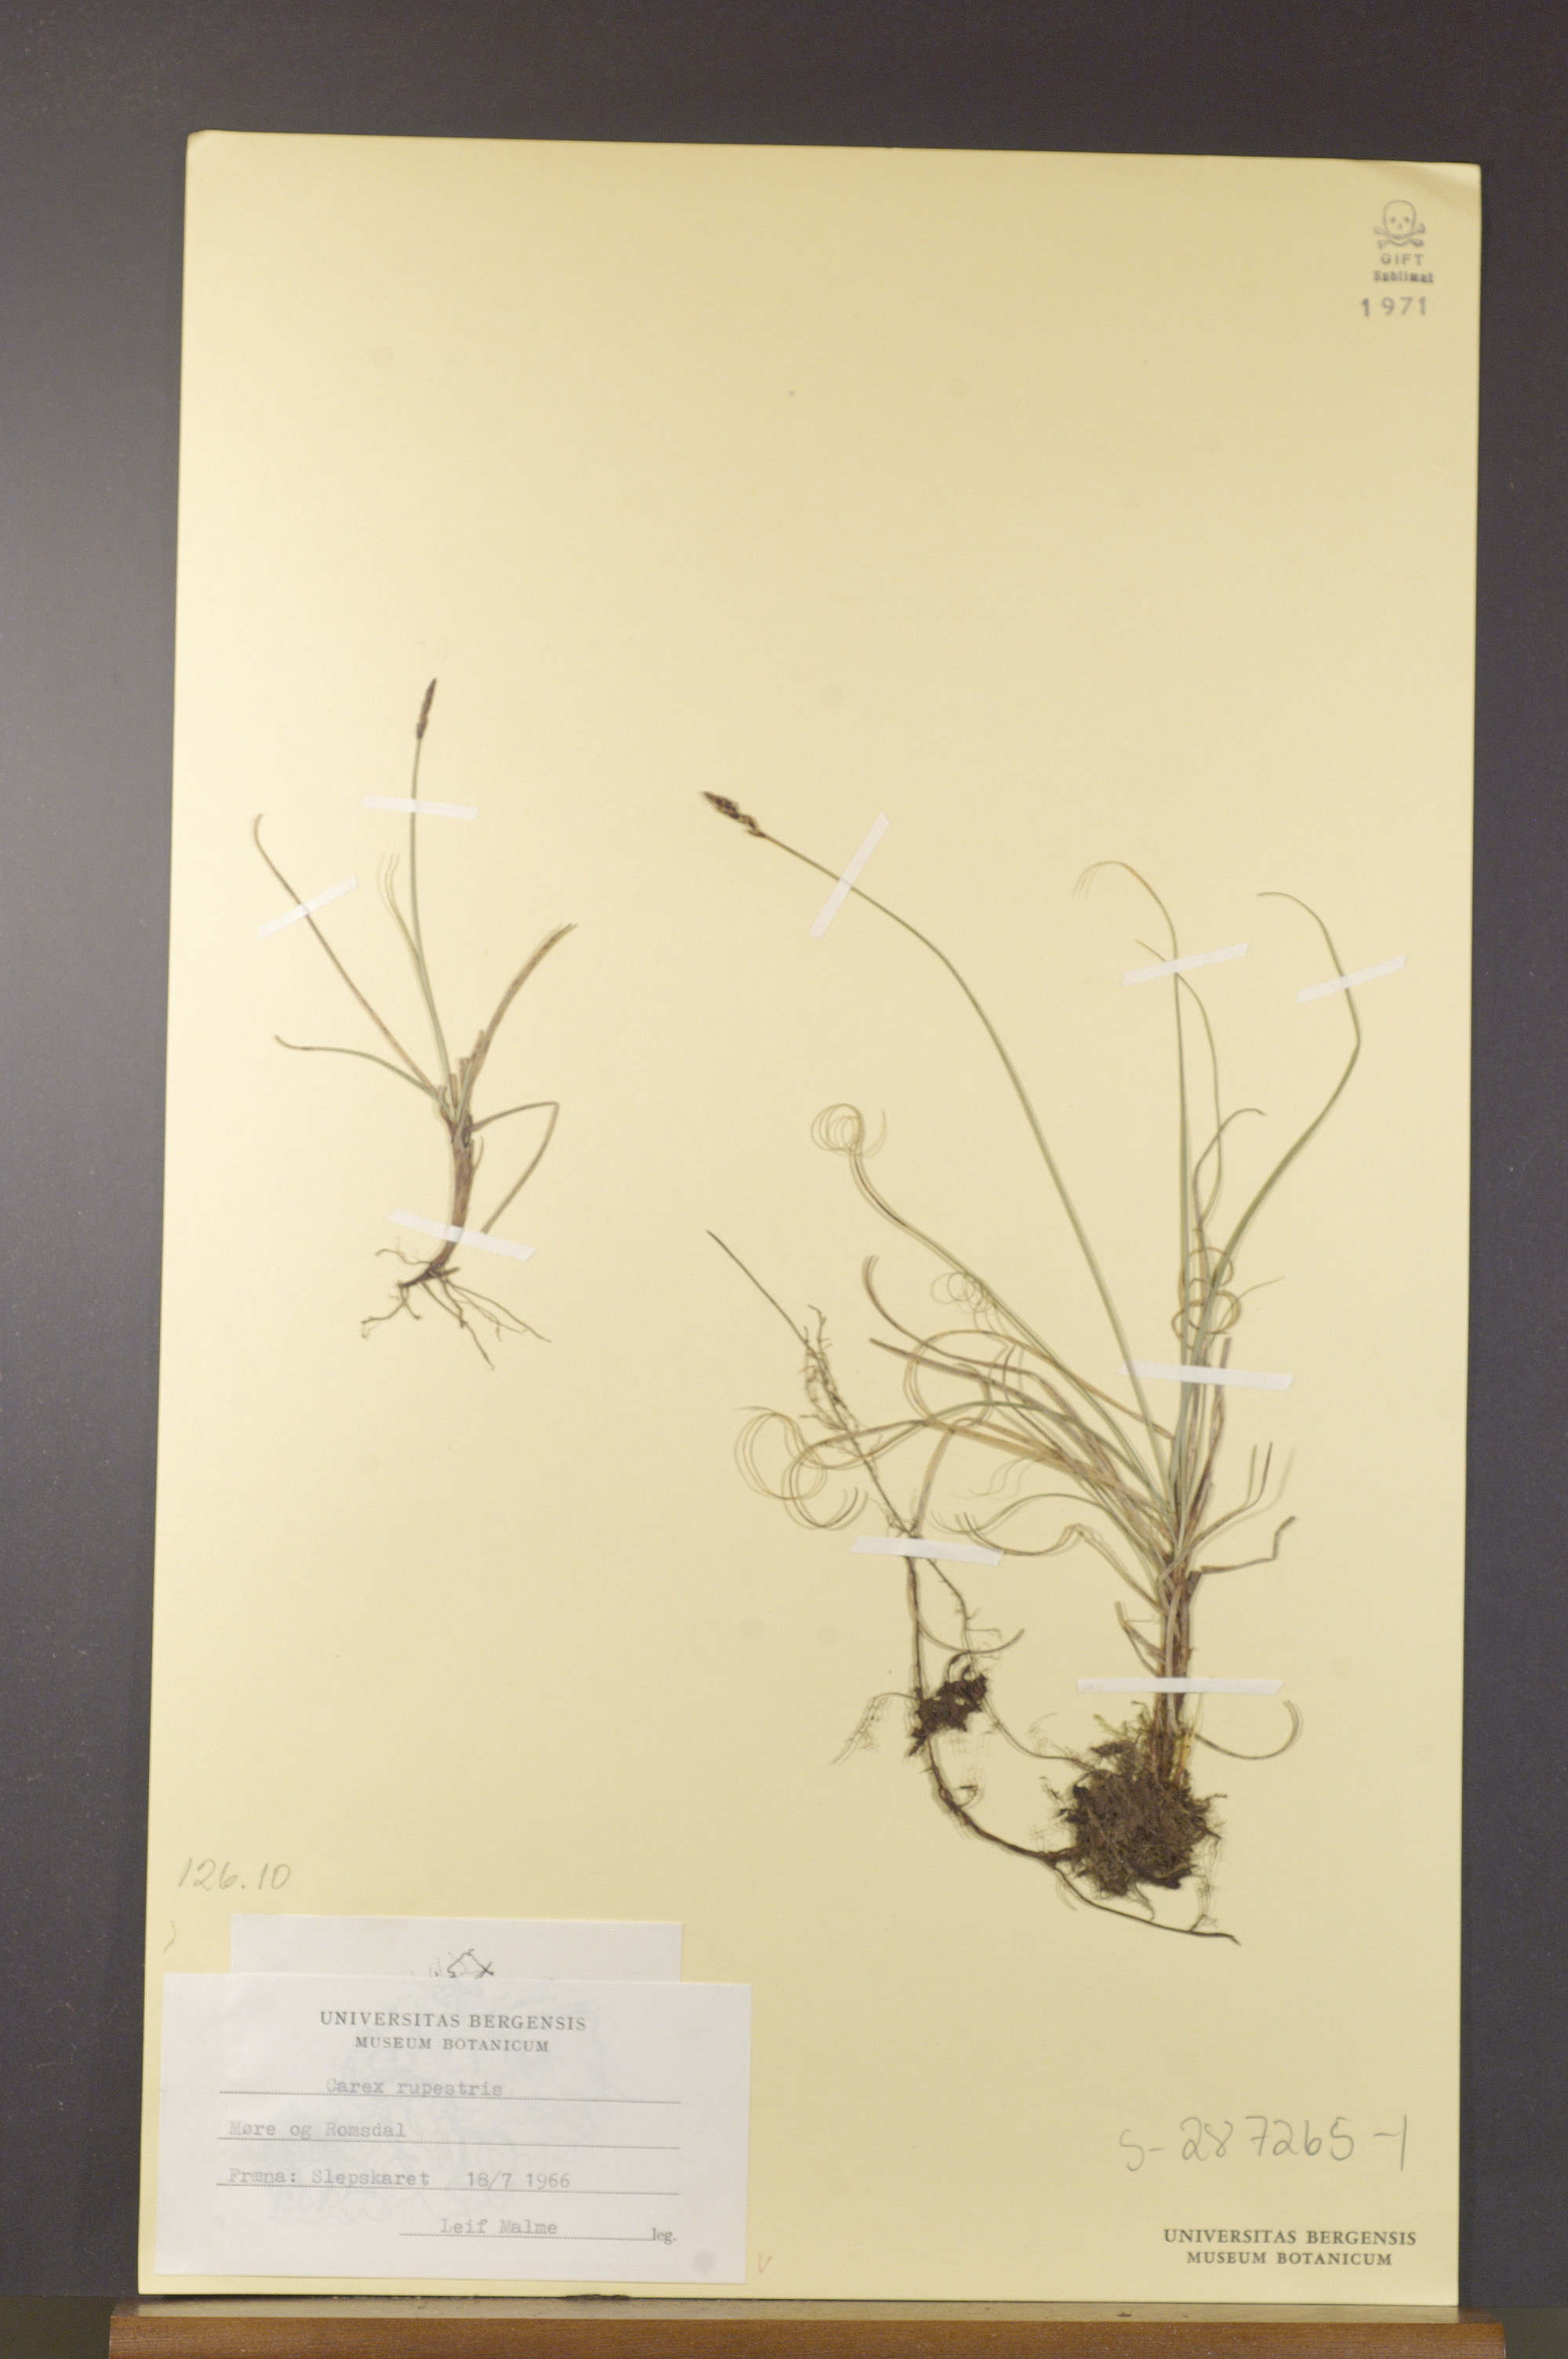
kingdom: Plantae
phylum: Tracheophyta
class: Liliopsida
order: Poales
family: Cyperaceae
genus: Carex
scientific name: Carex rupestris
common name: Rock sedge
